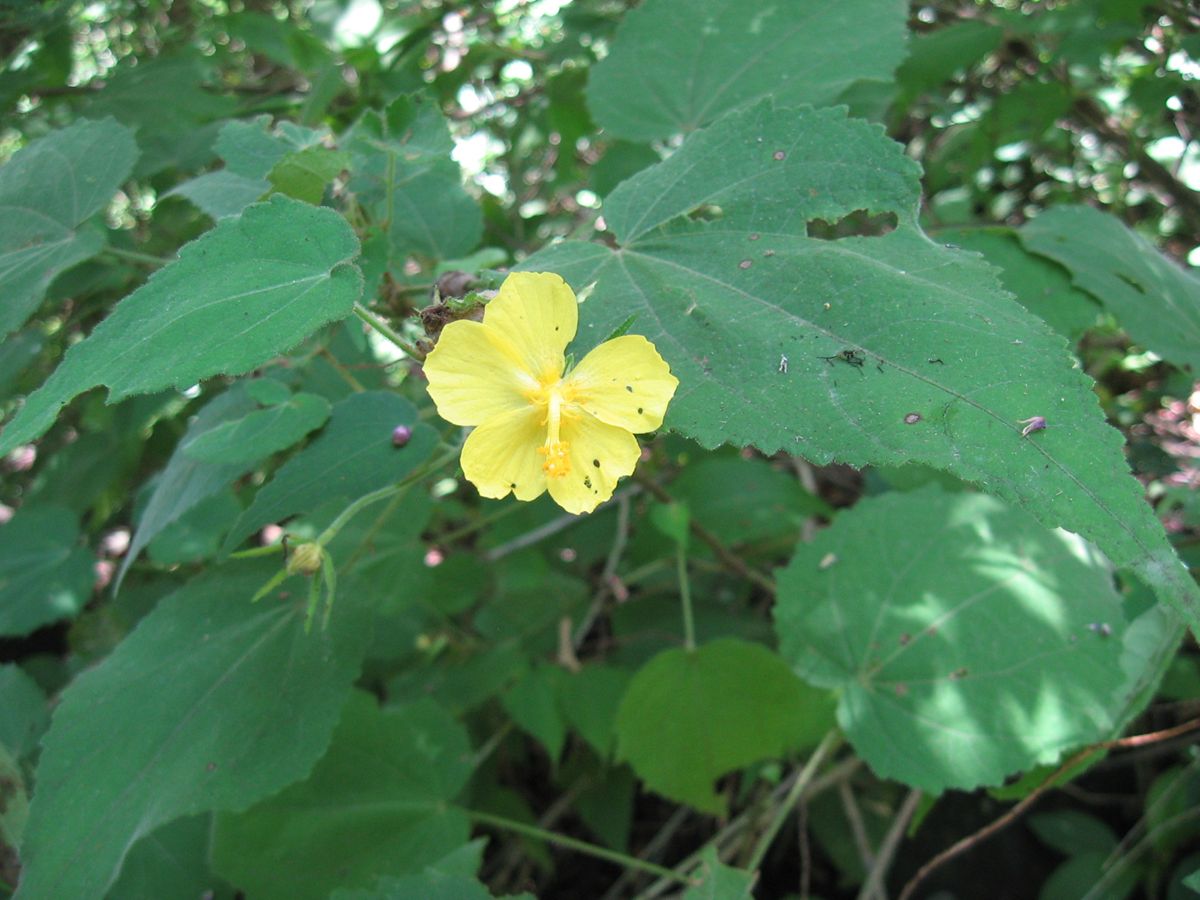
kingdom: Plantae
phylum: Tracheophyta
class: Magnoliopsida
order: Malvales
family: Malvaceae
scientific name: Malvaceae
